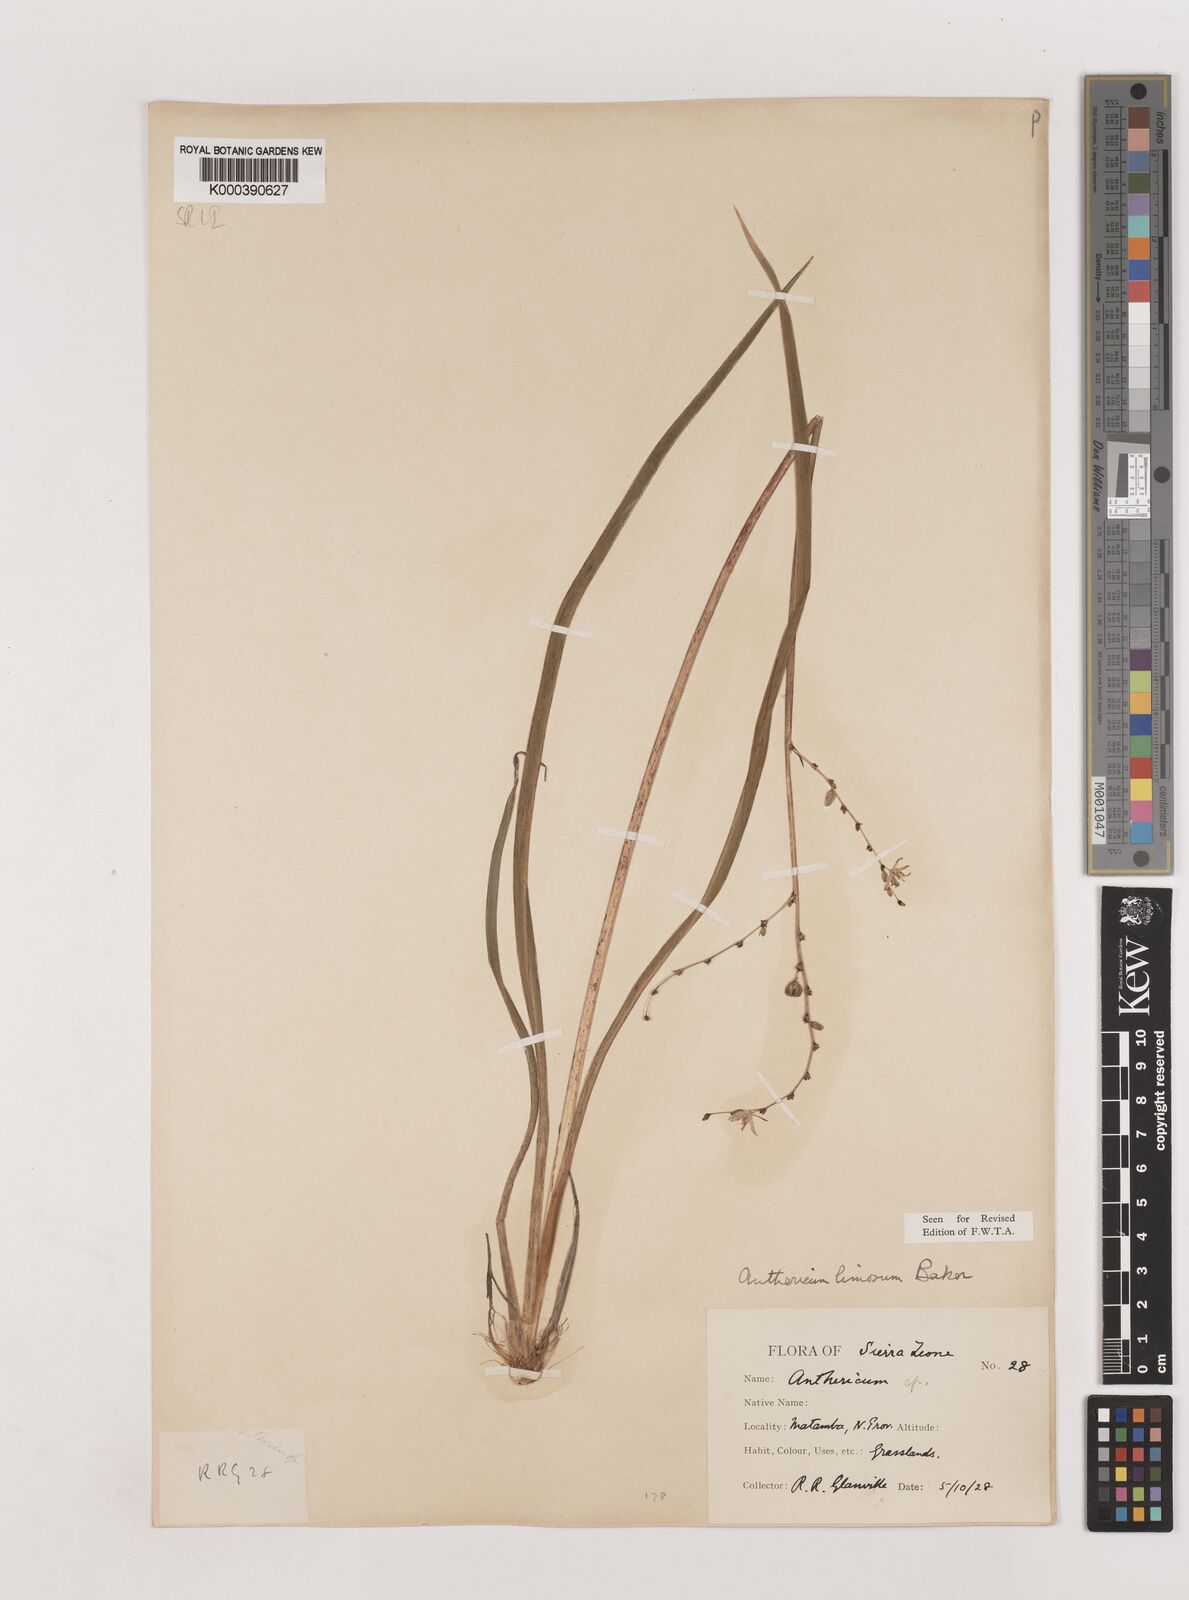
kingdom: Plantae
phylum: Tracheophyta
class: Liliopsida
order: Asparagales
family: Asparagaceae
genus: Chlorophytum
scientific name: Chlorophytum limosum
